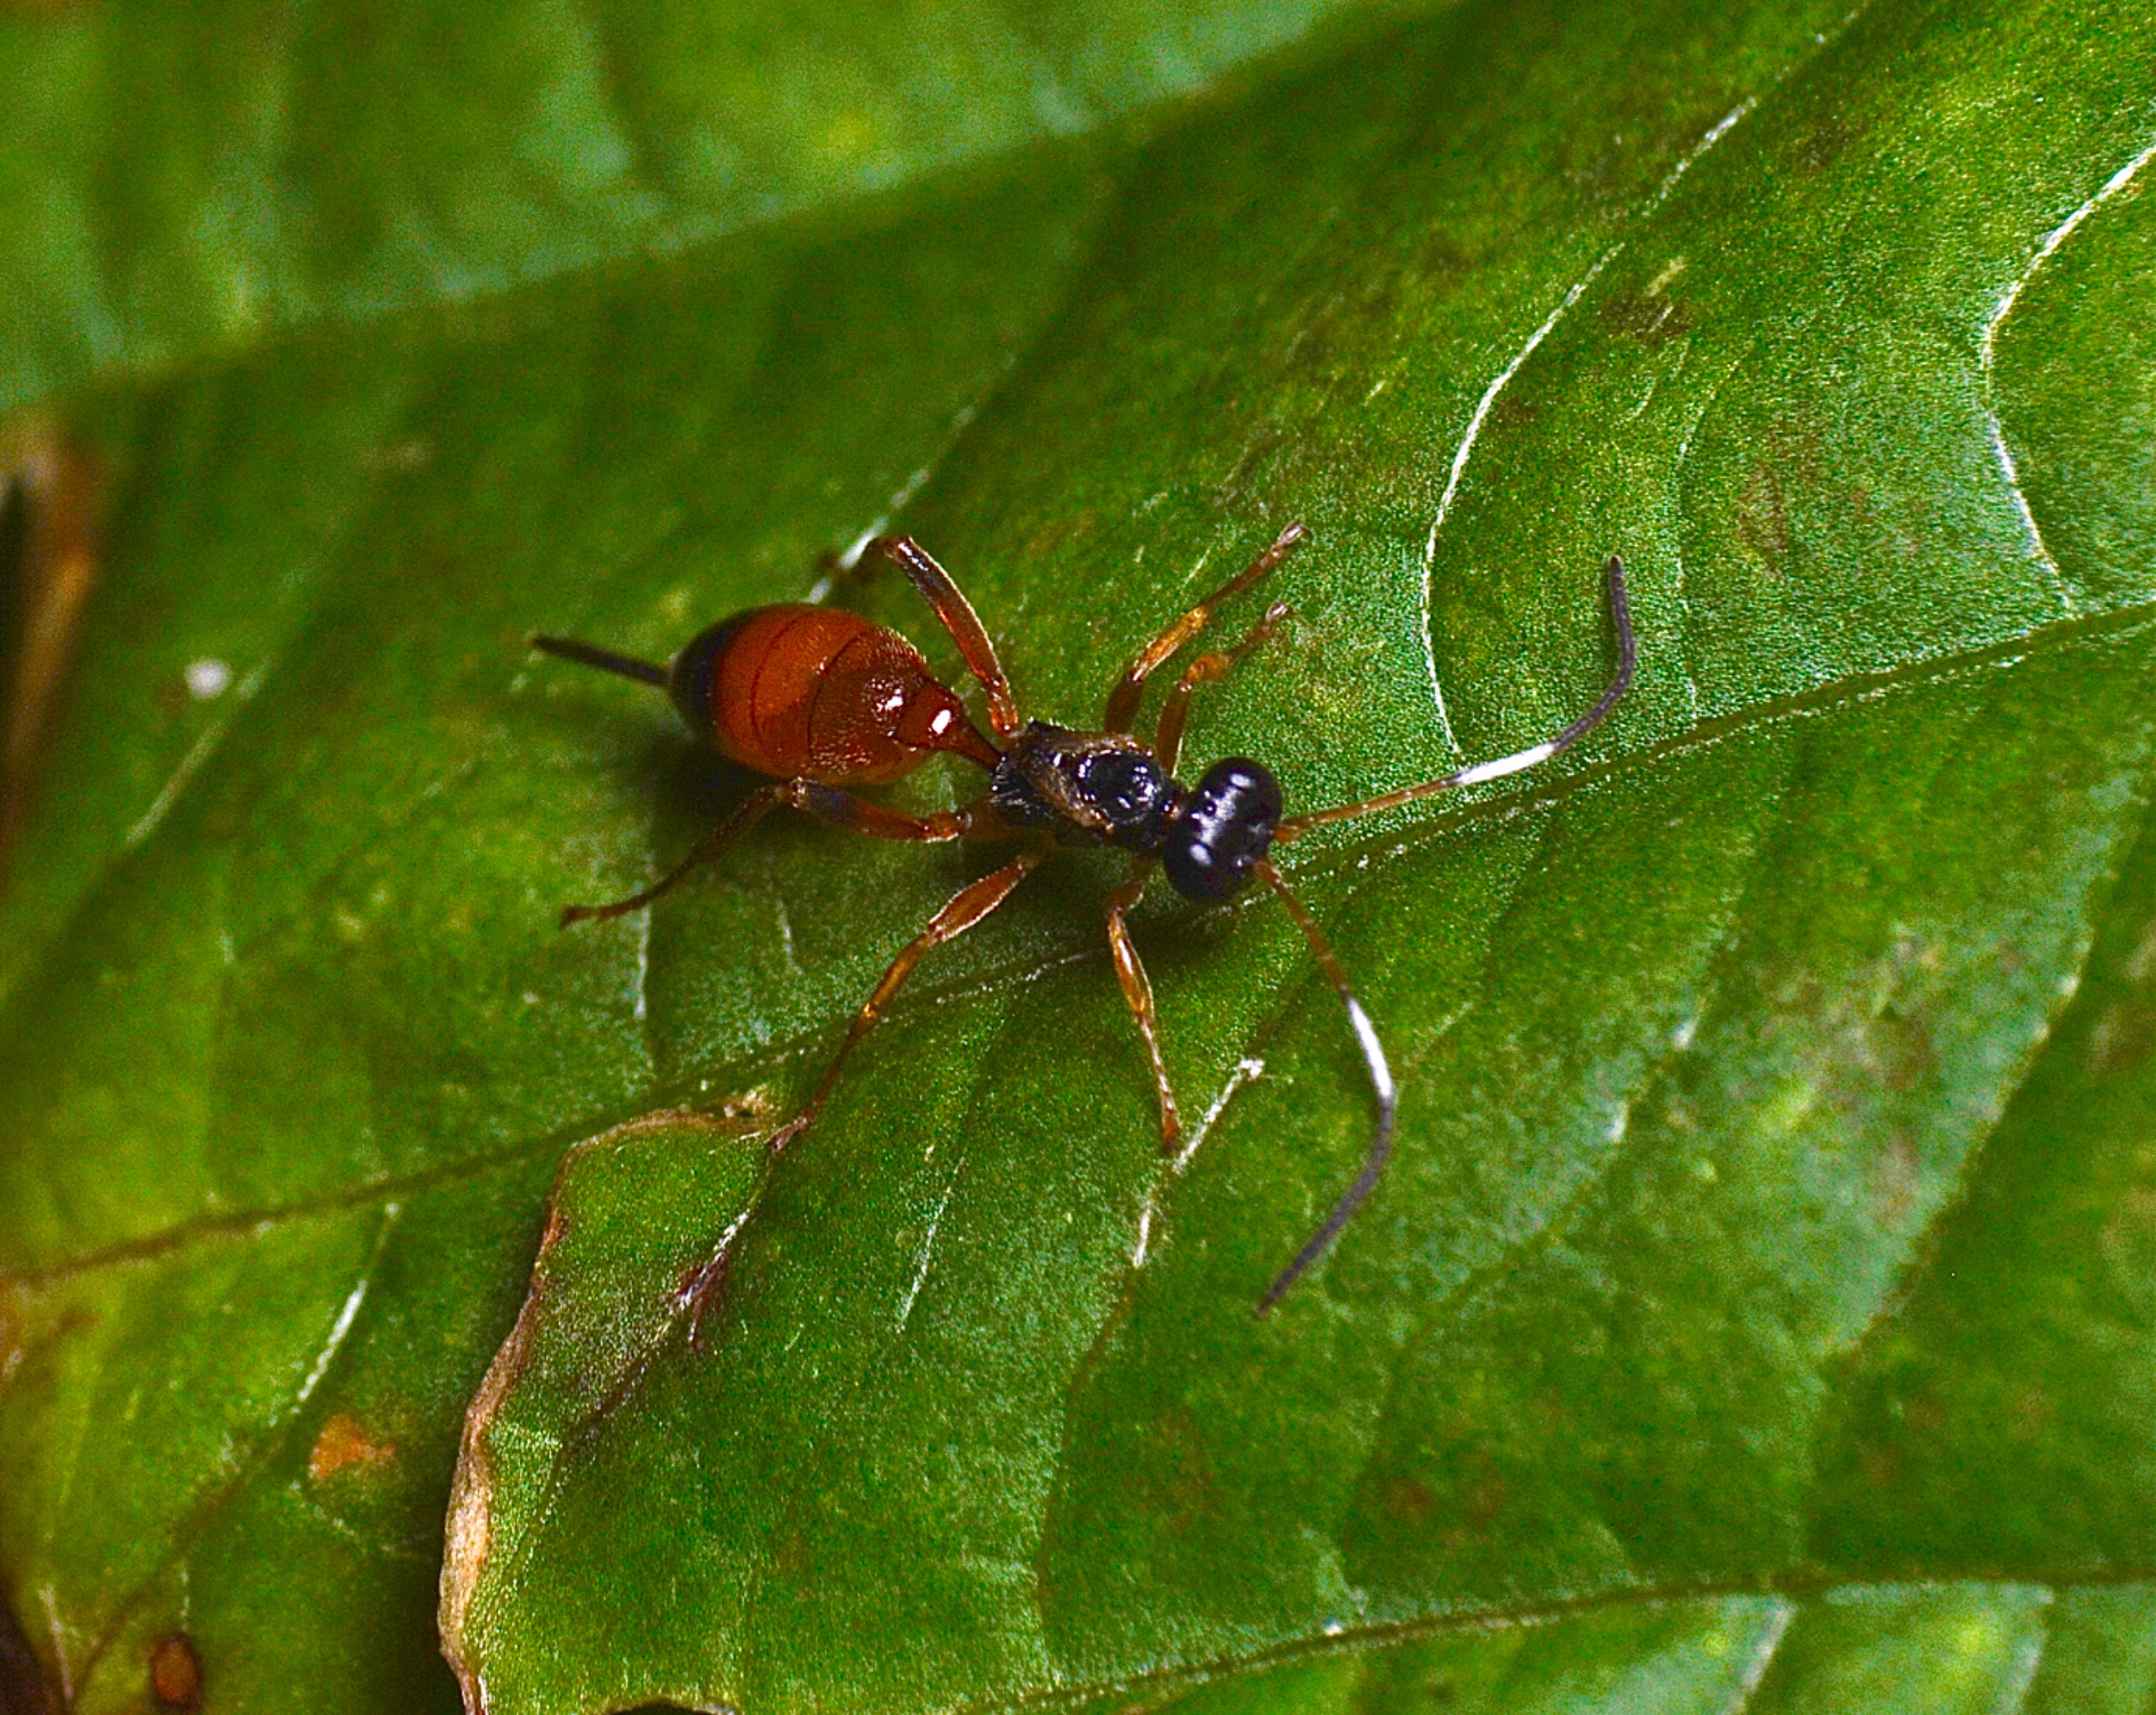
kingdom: Animalia
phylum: Arthropoda
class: Insecta
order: Hymenoptera
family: Ichneumonidae
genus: Agrothereutes
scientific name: Agrothereutes abbreviatus
